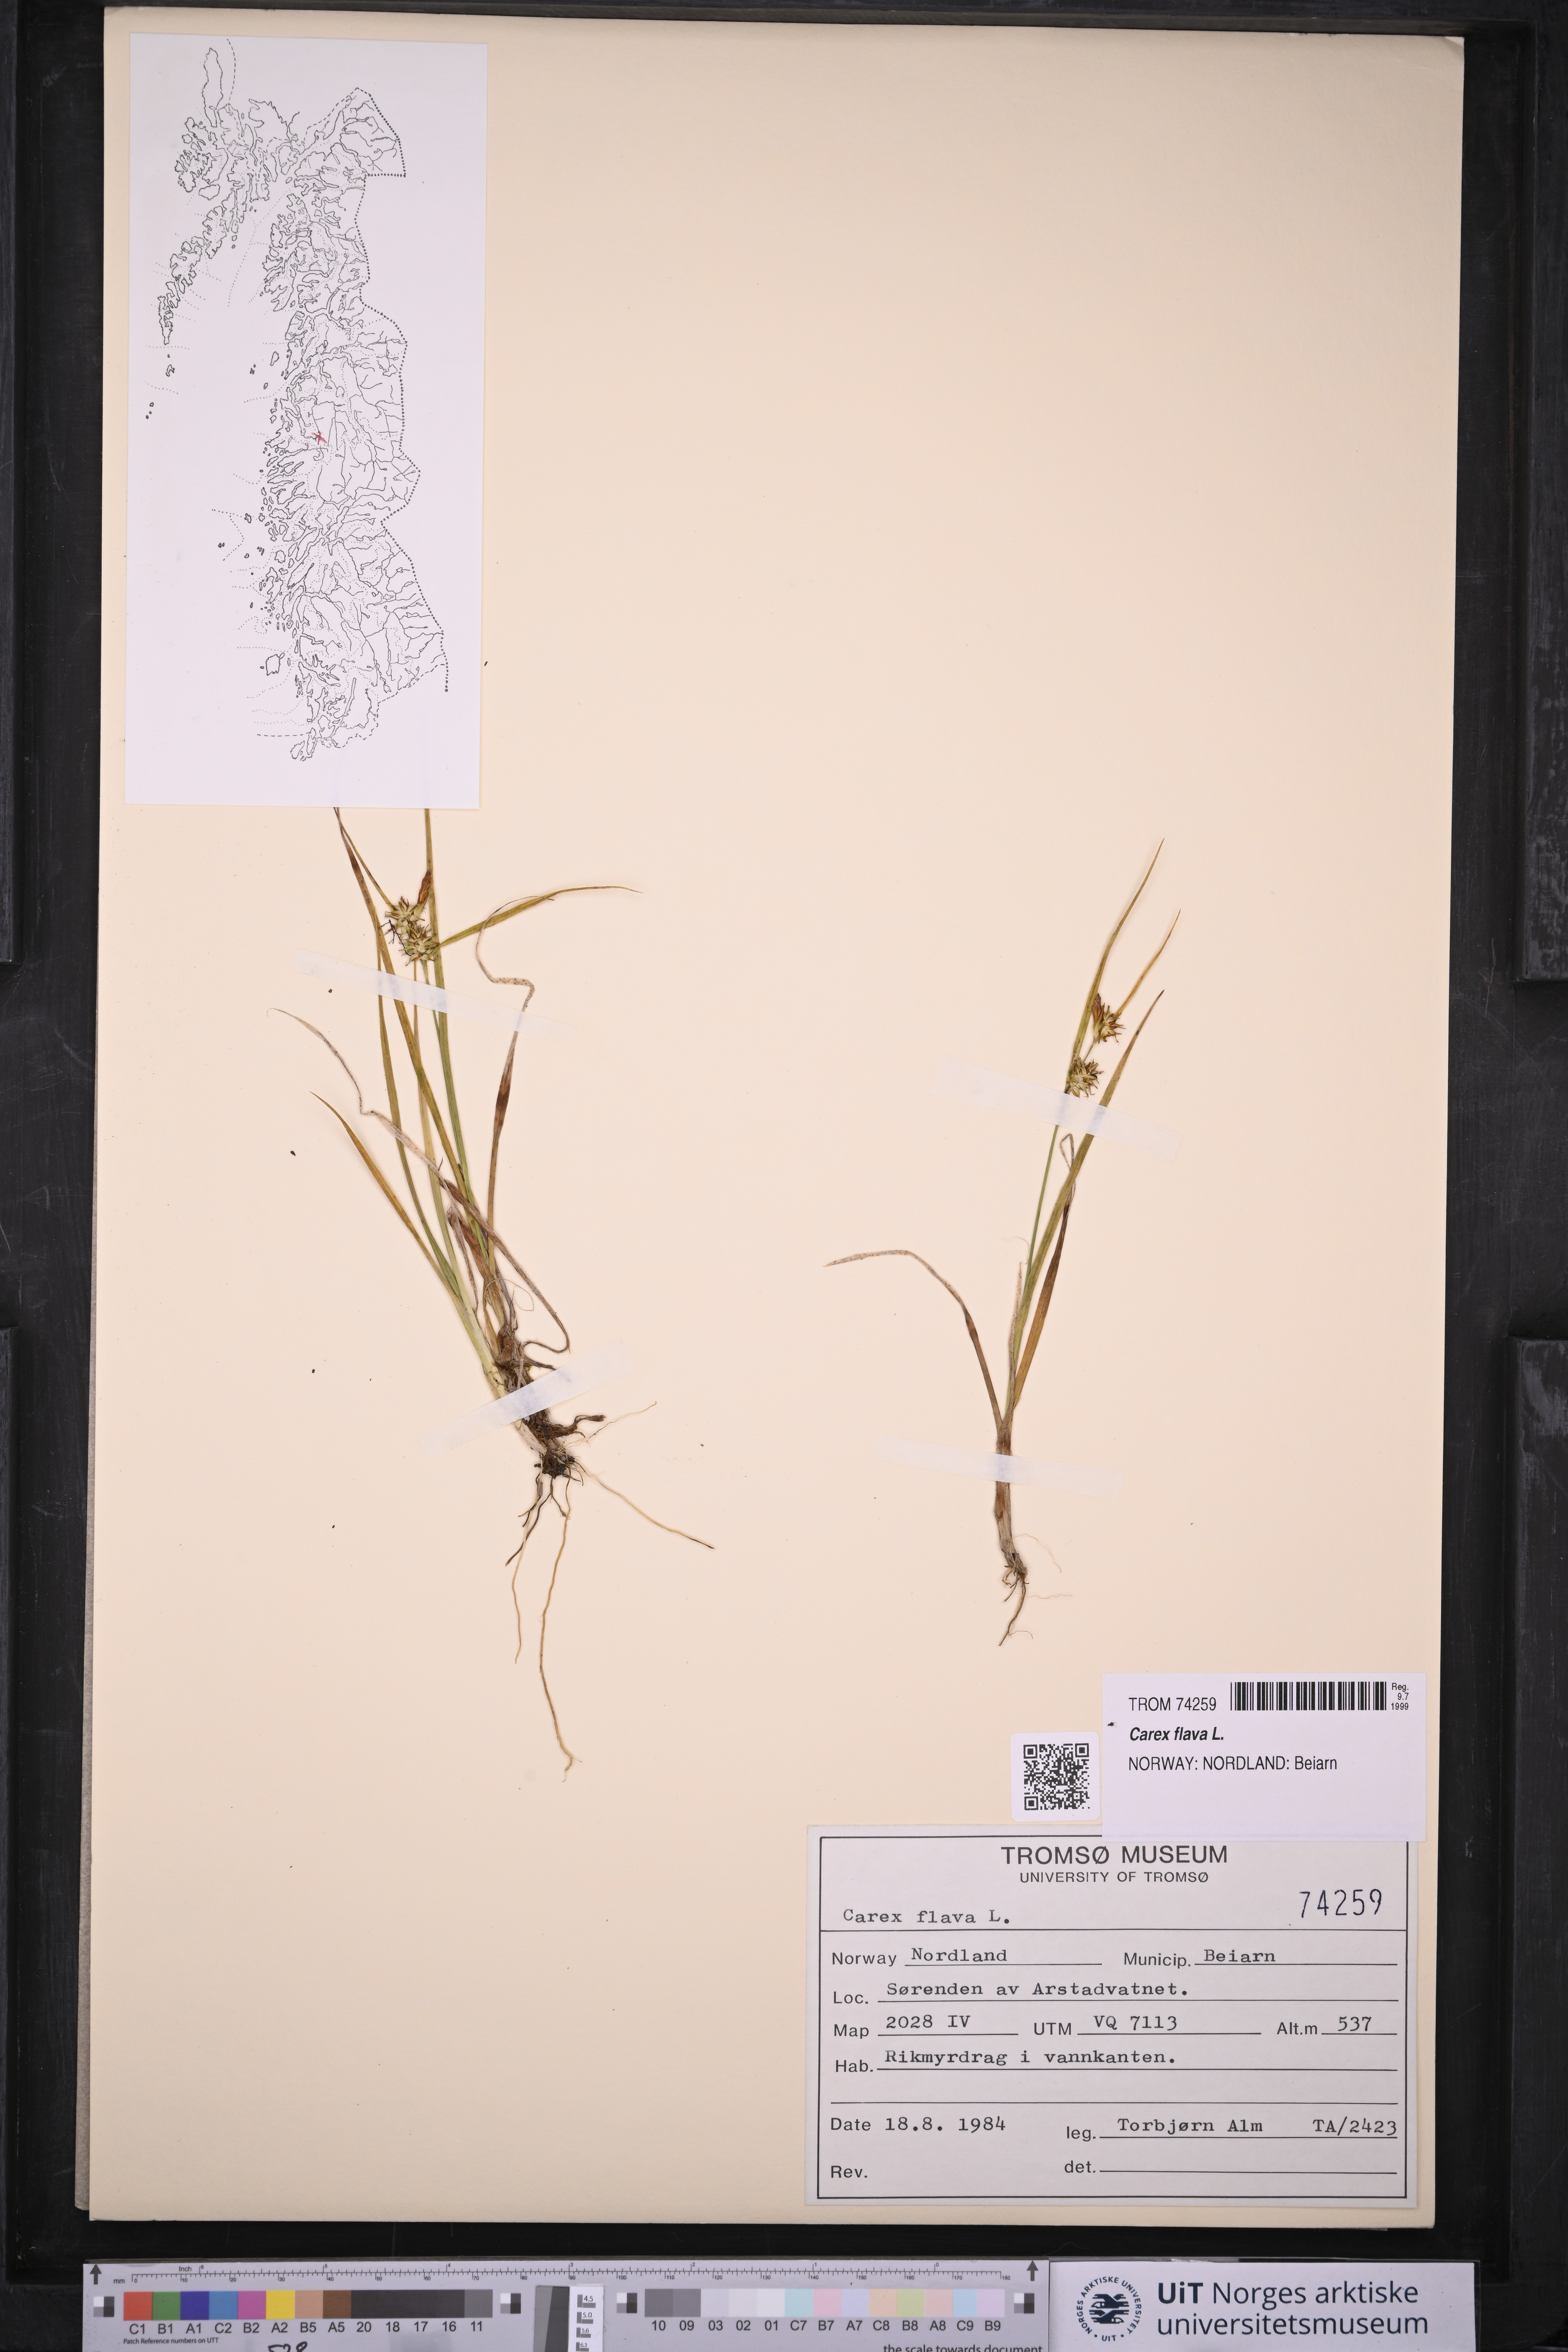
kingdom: Plantae
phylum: Tracheophyta
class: Liliopsida
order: Poales
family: Cyperaceae
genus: Carex
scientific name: Carex flava
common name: Large yellow-sedge
